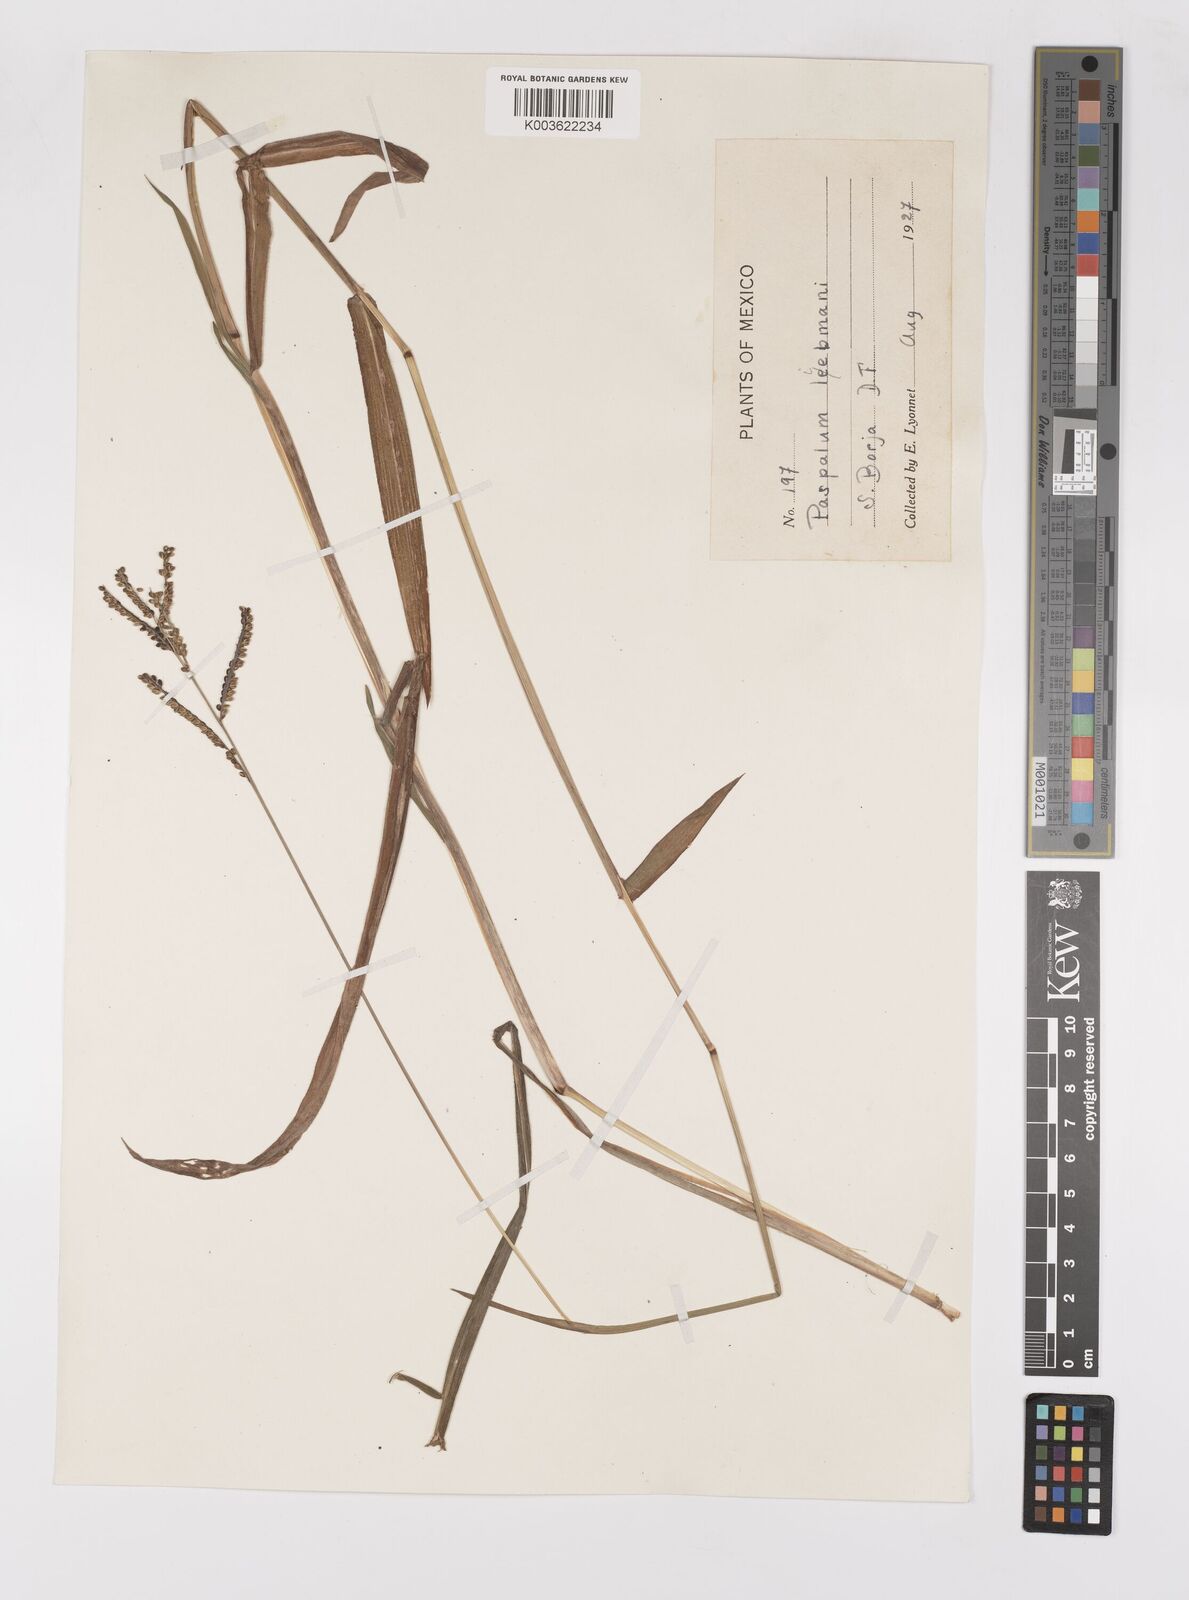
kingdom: Plantae
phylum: Tracheophyta
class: Liliopsida
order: Poales
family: Poaceae
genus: Paspalum
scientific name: Paspalum
